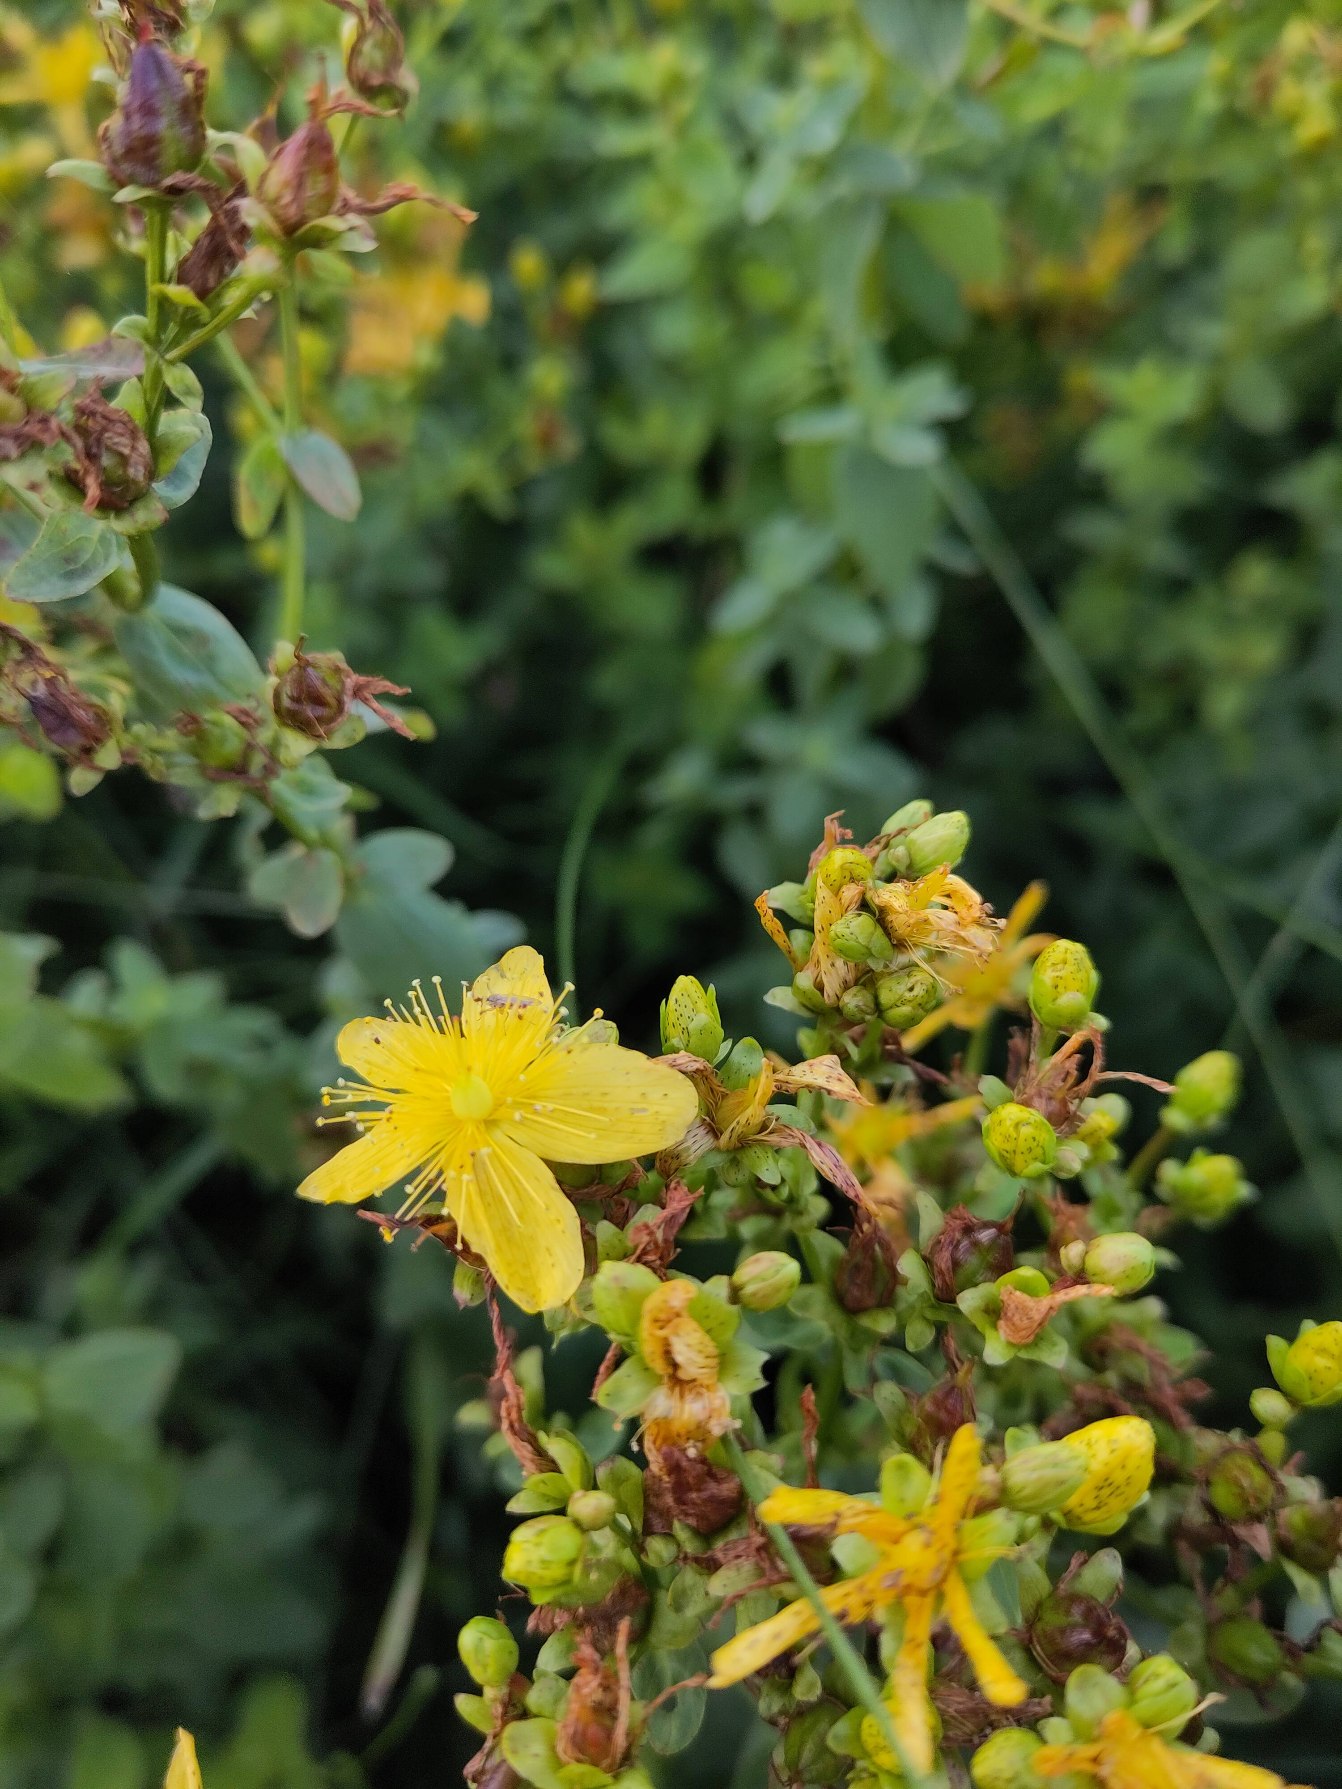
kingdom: Plantae
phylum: Tracheophyta
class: Magnoliopsida
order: Malpighiales
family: Hypericaceae
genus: Hypericum
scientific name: Hypericum maculatum
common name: Kantet perikon (underart)
